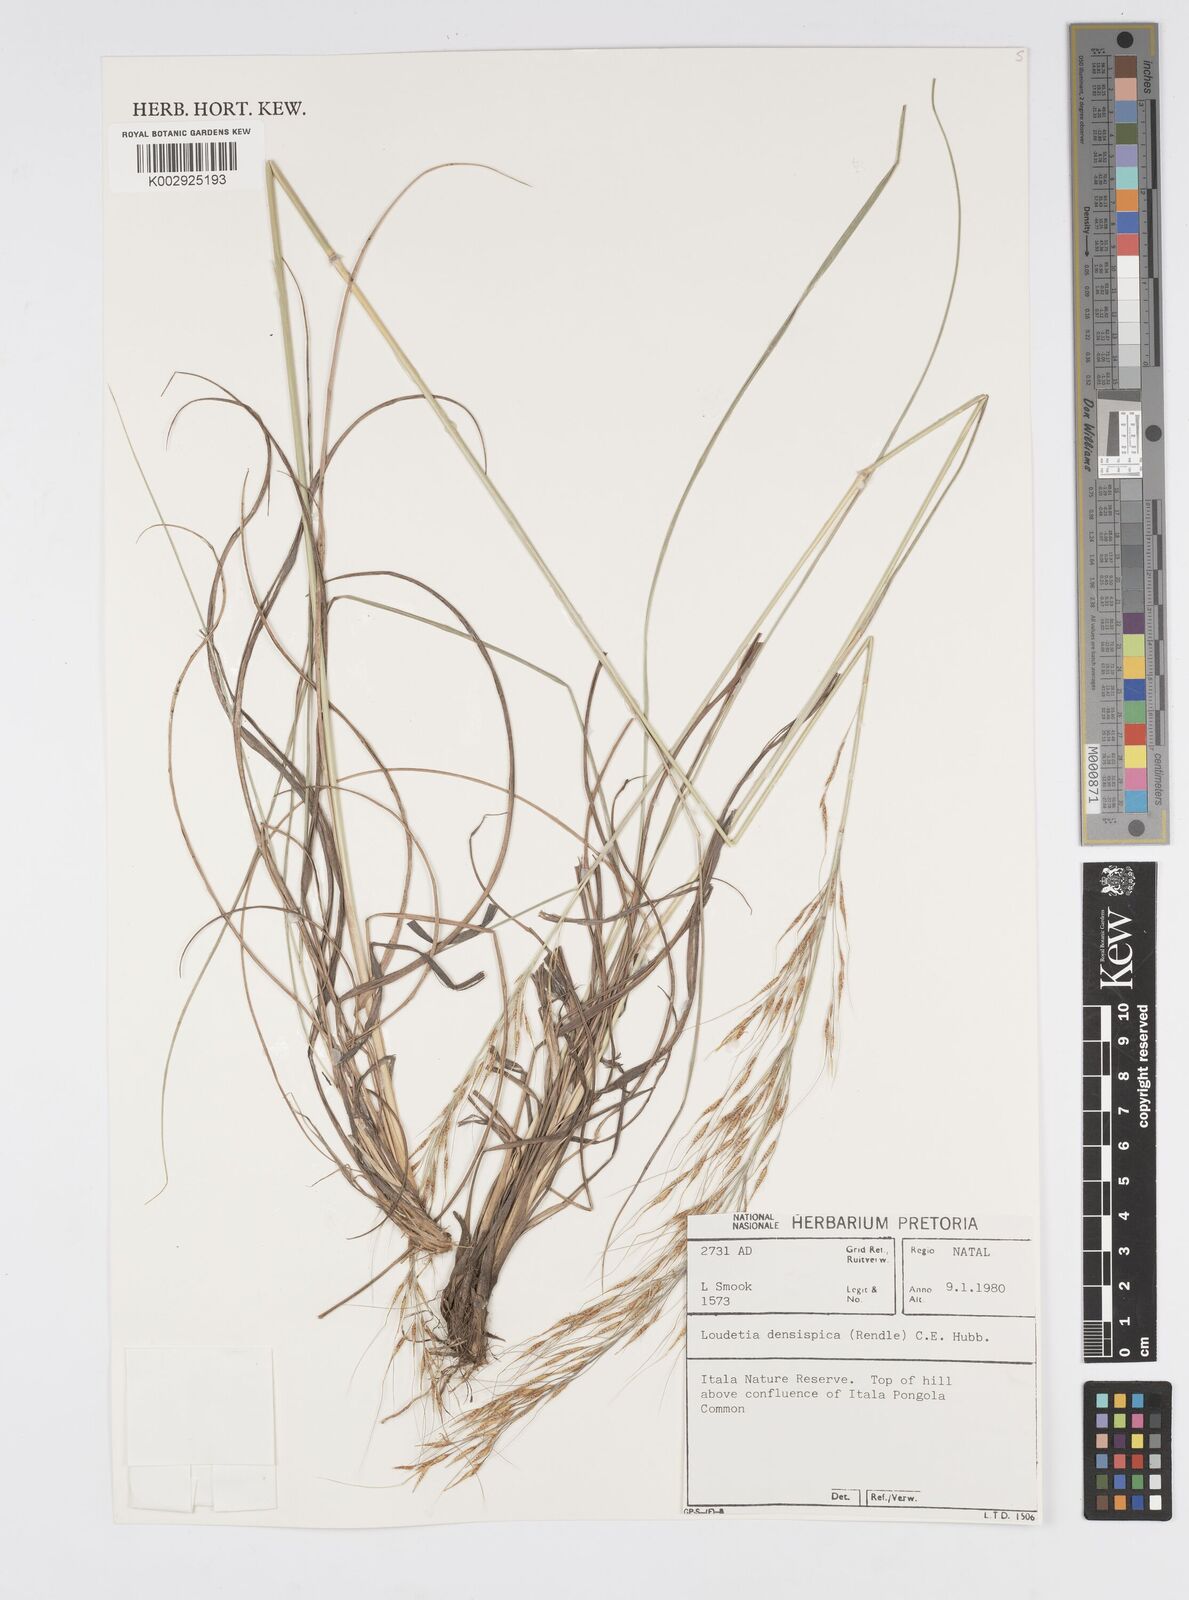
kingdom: Plantae
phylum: Tracheophyta
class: Liliopsida
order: Poales
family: Poaceae
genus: Loudetia
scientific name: Loudetia simplex
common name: Common russet grass
